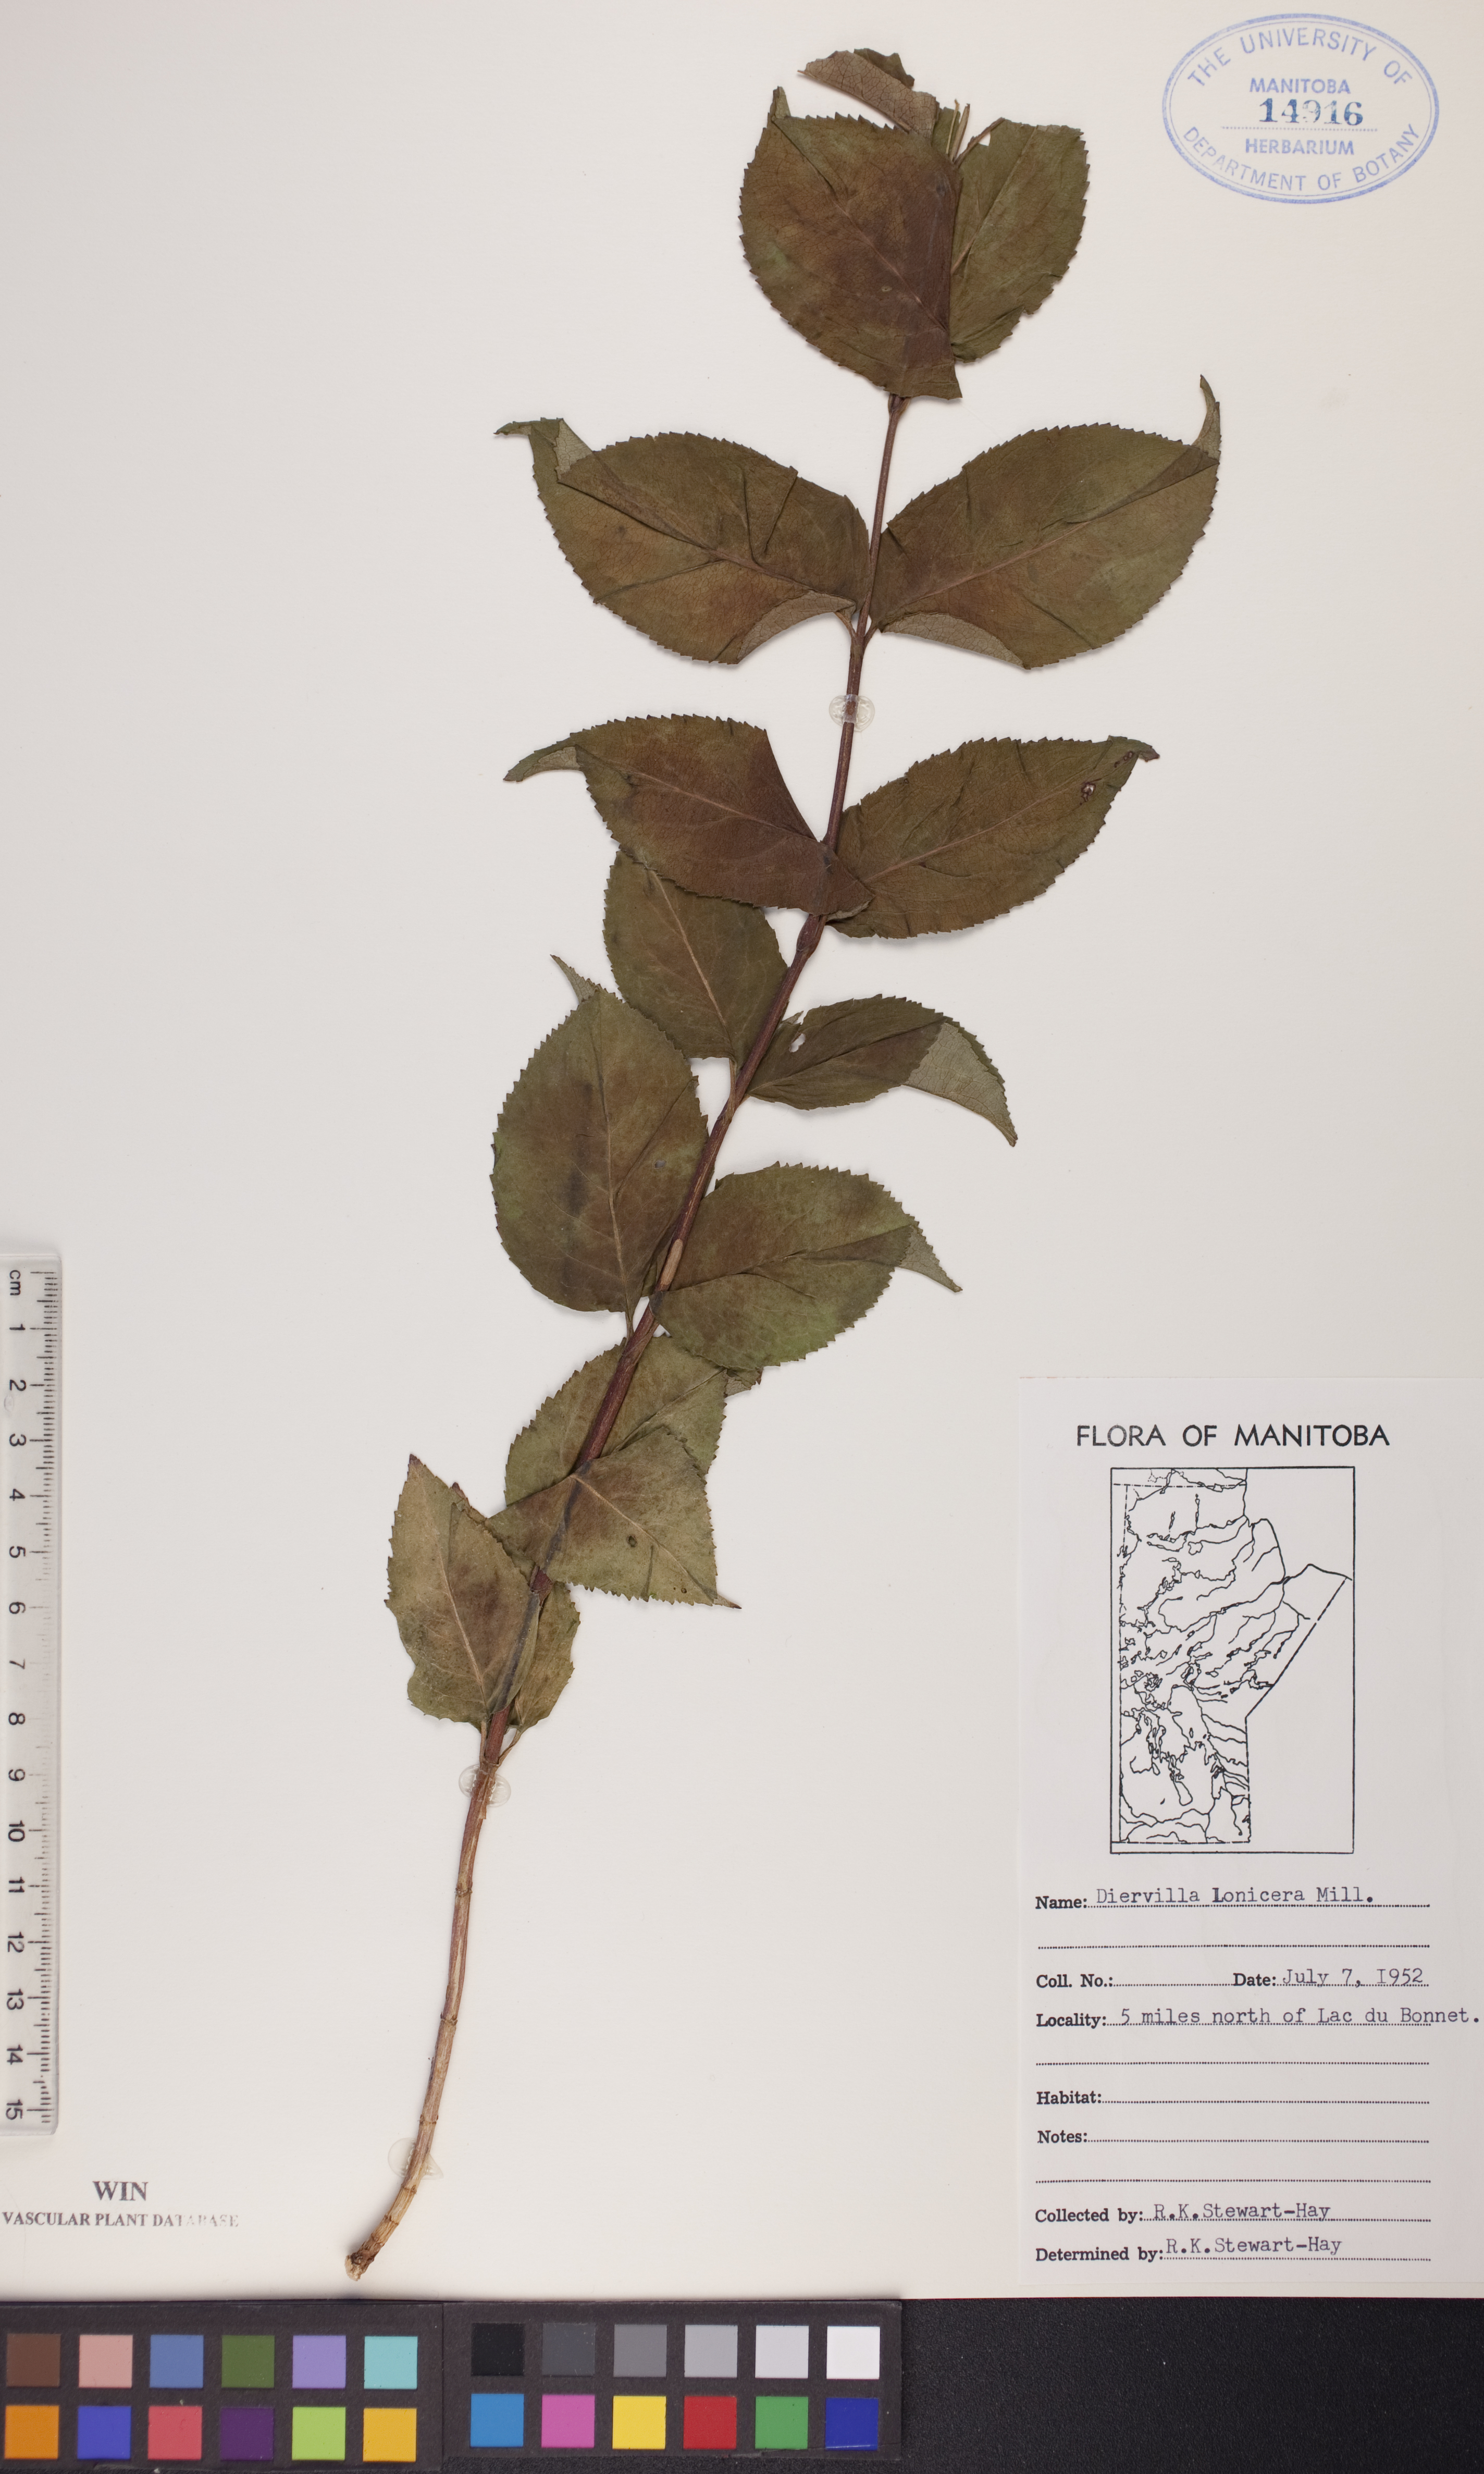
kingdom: Plantae
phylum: Tracheophyta
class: Magnoliopsida
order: Dipsacales
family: Caprifoliaceae
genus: Diervilla
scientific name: Diervilla lonicera
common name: Bush-honeysuckle
